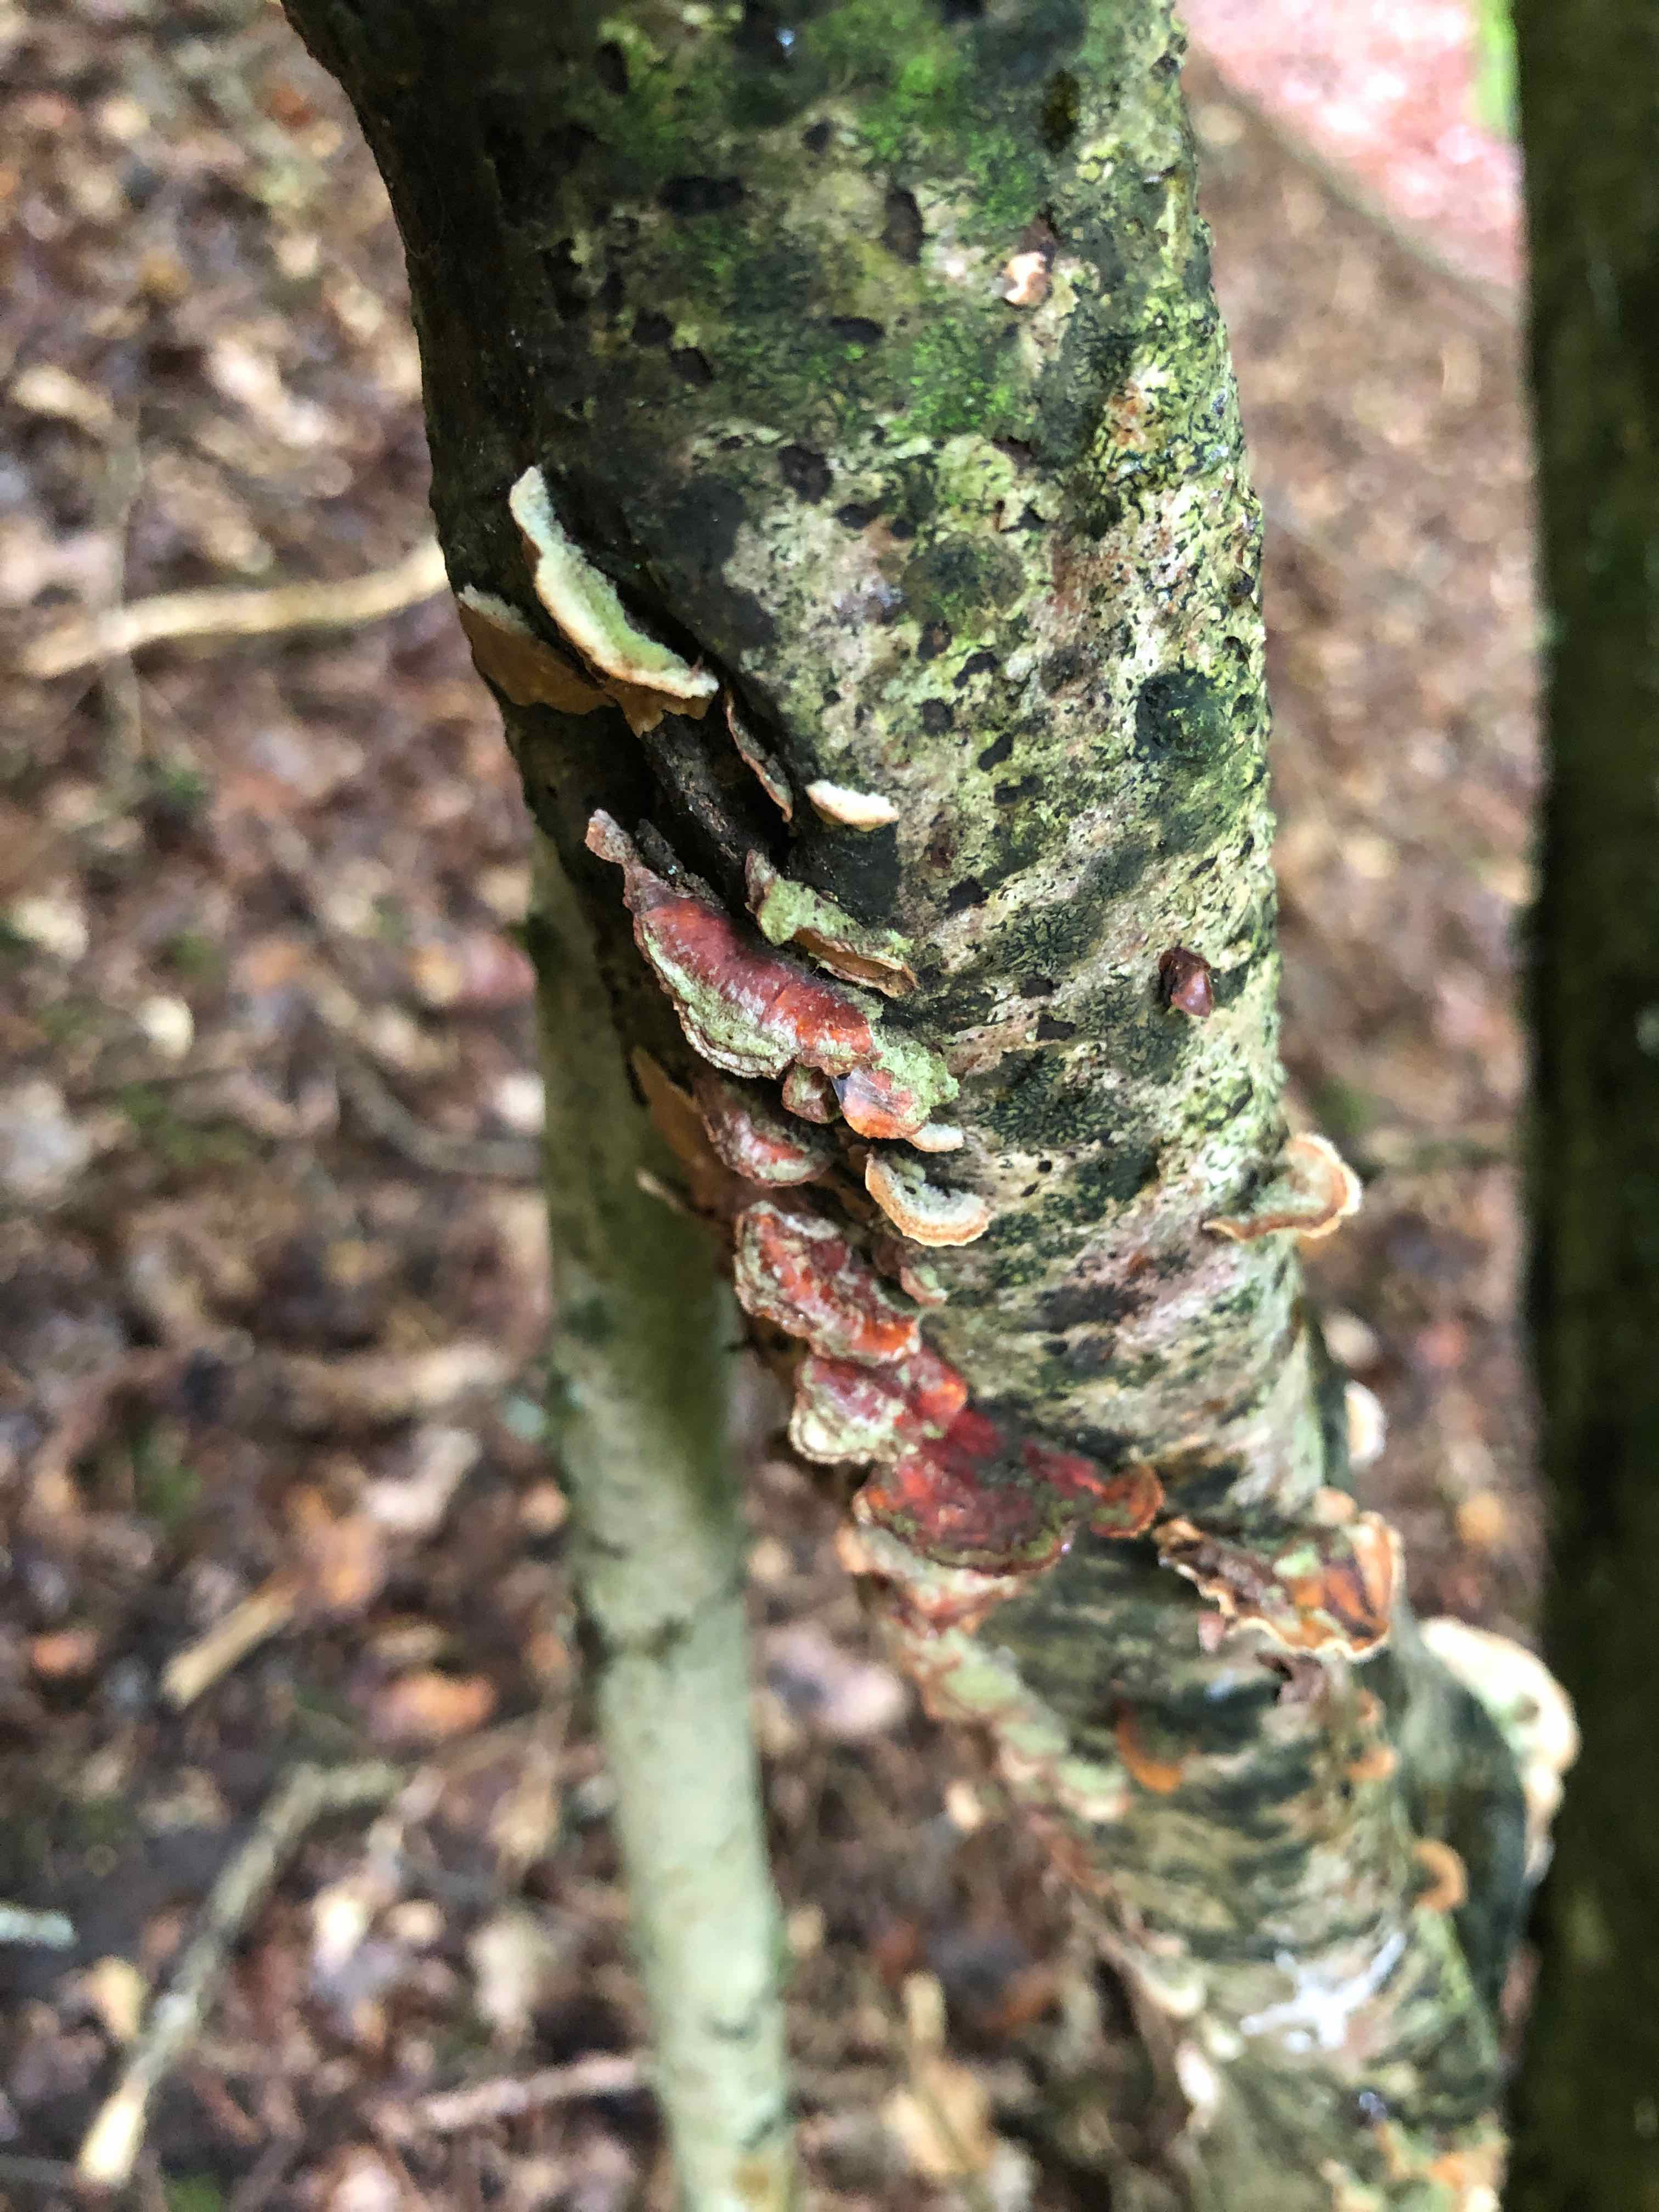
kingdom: Fungi
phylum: Basidiomycota
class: Agaricomycetes
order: Russulales
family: Stereaceae
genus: Stereum
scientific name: Stereum hirsutum
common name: håret lædersvamp
